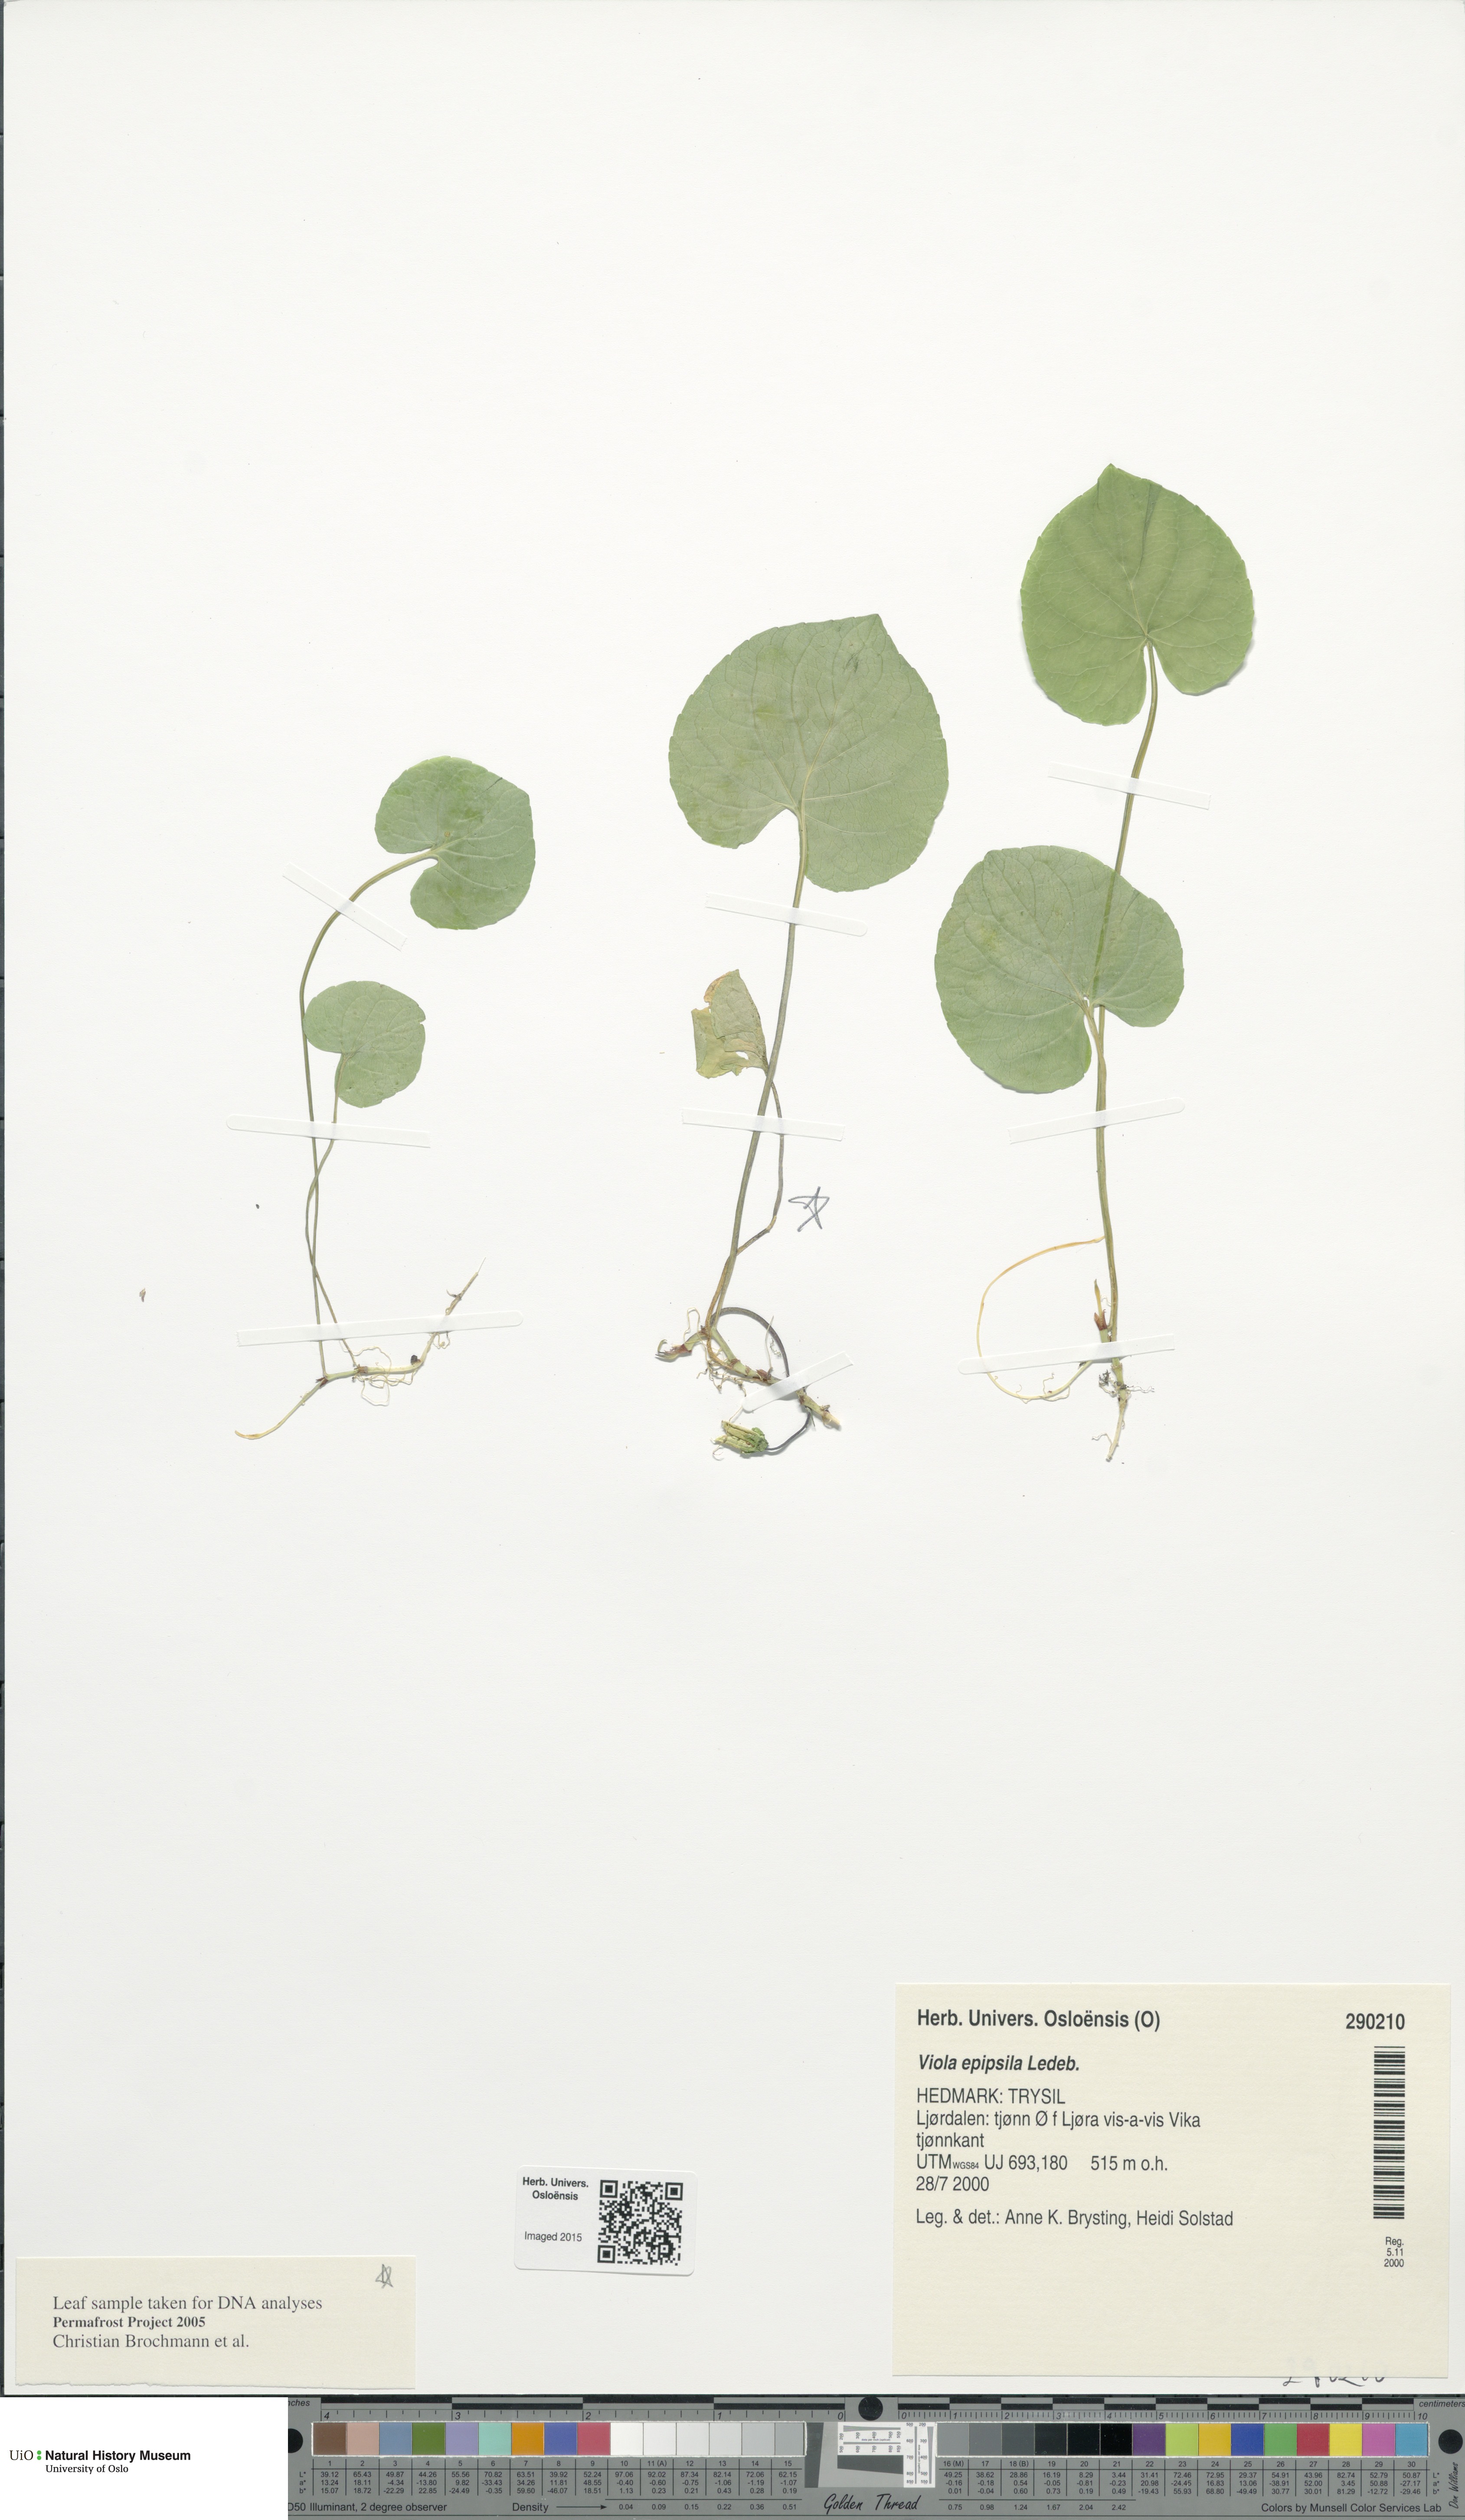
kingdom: Plantae
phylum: Tracheophyta
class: Magnoliopsida
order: Malpighiales
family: Violaceae
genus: Viola
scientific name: Viola epipsila
